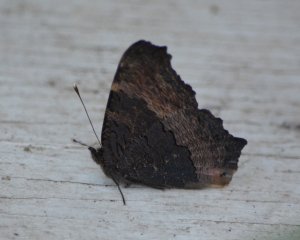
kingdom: Animalia
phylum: Arthropoda
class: Insecta
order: Lepidoptera
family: Nymphalidae
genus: Aglais
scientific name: Aglais milberti
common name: Milbert's Tortoiseshell
